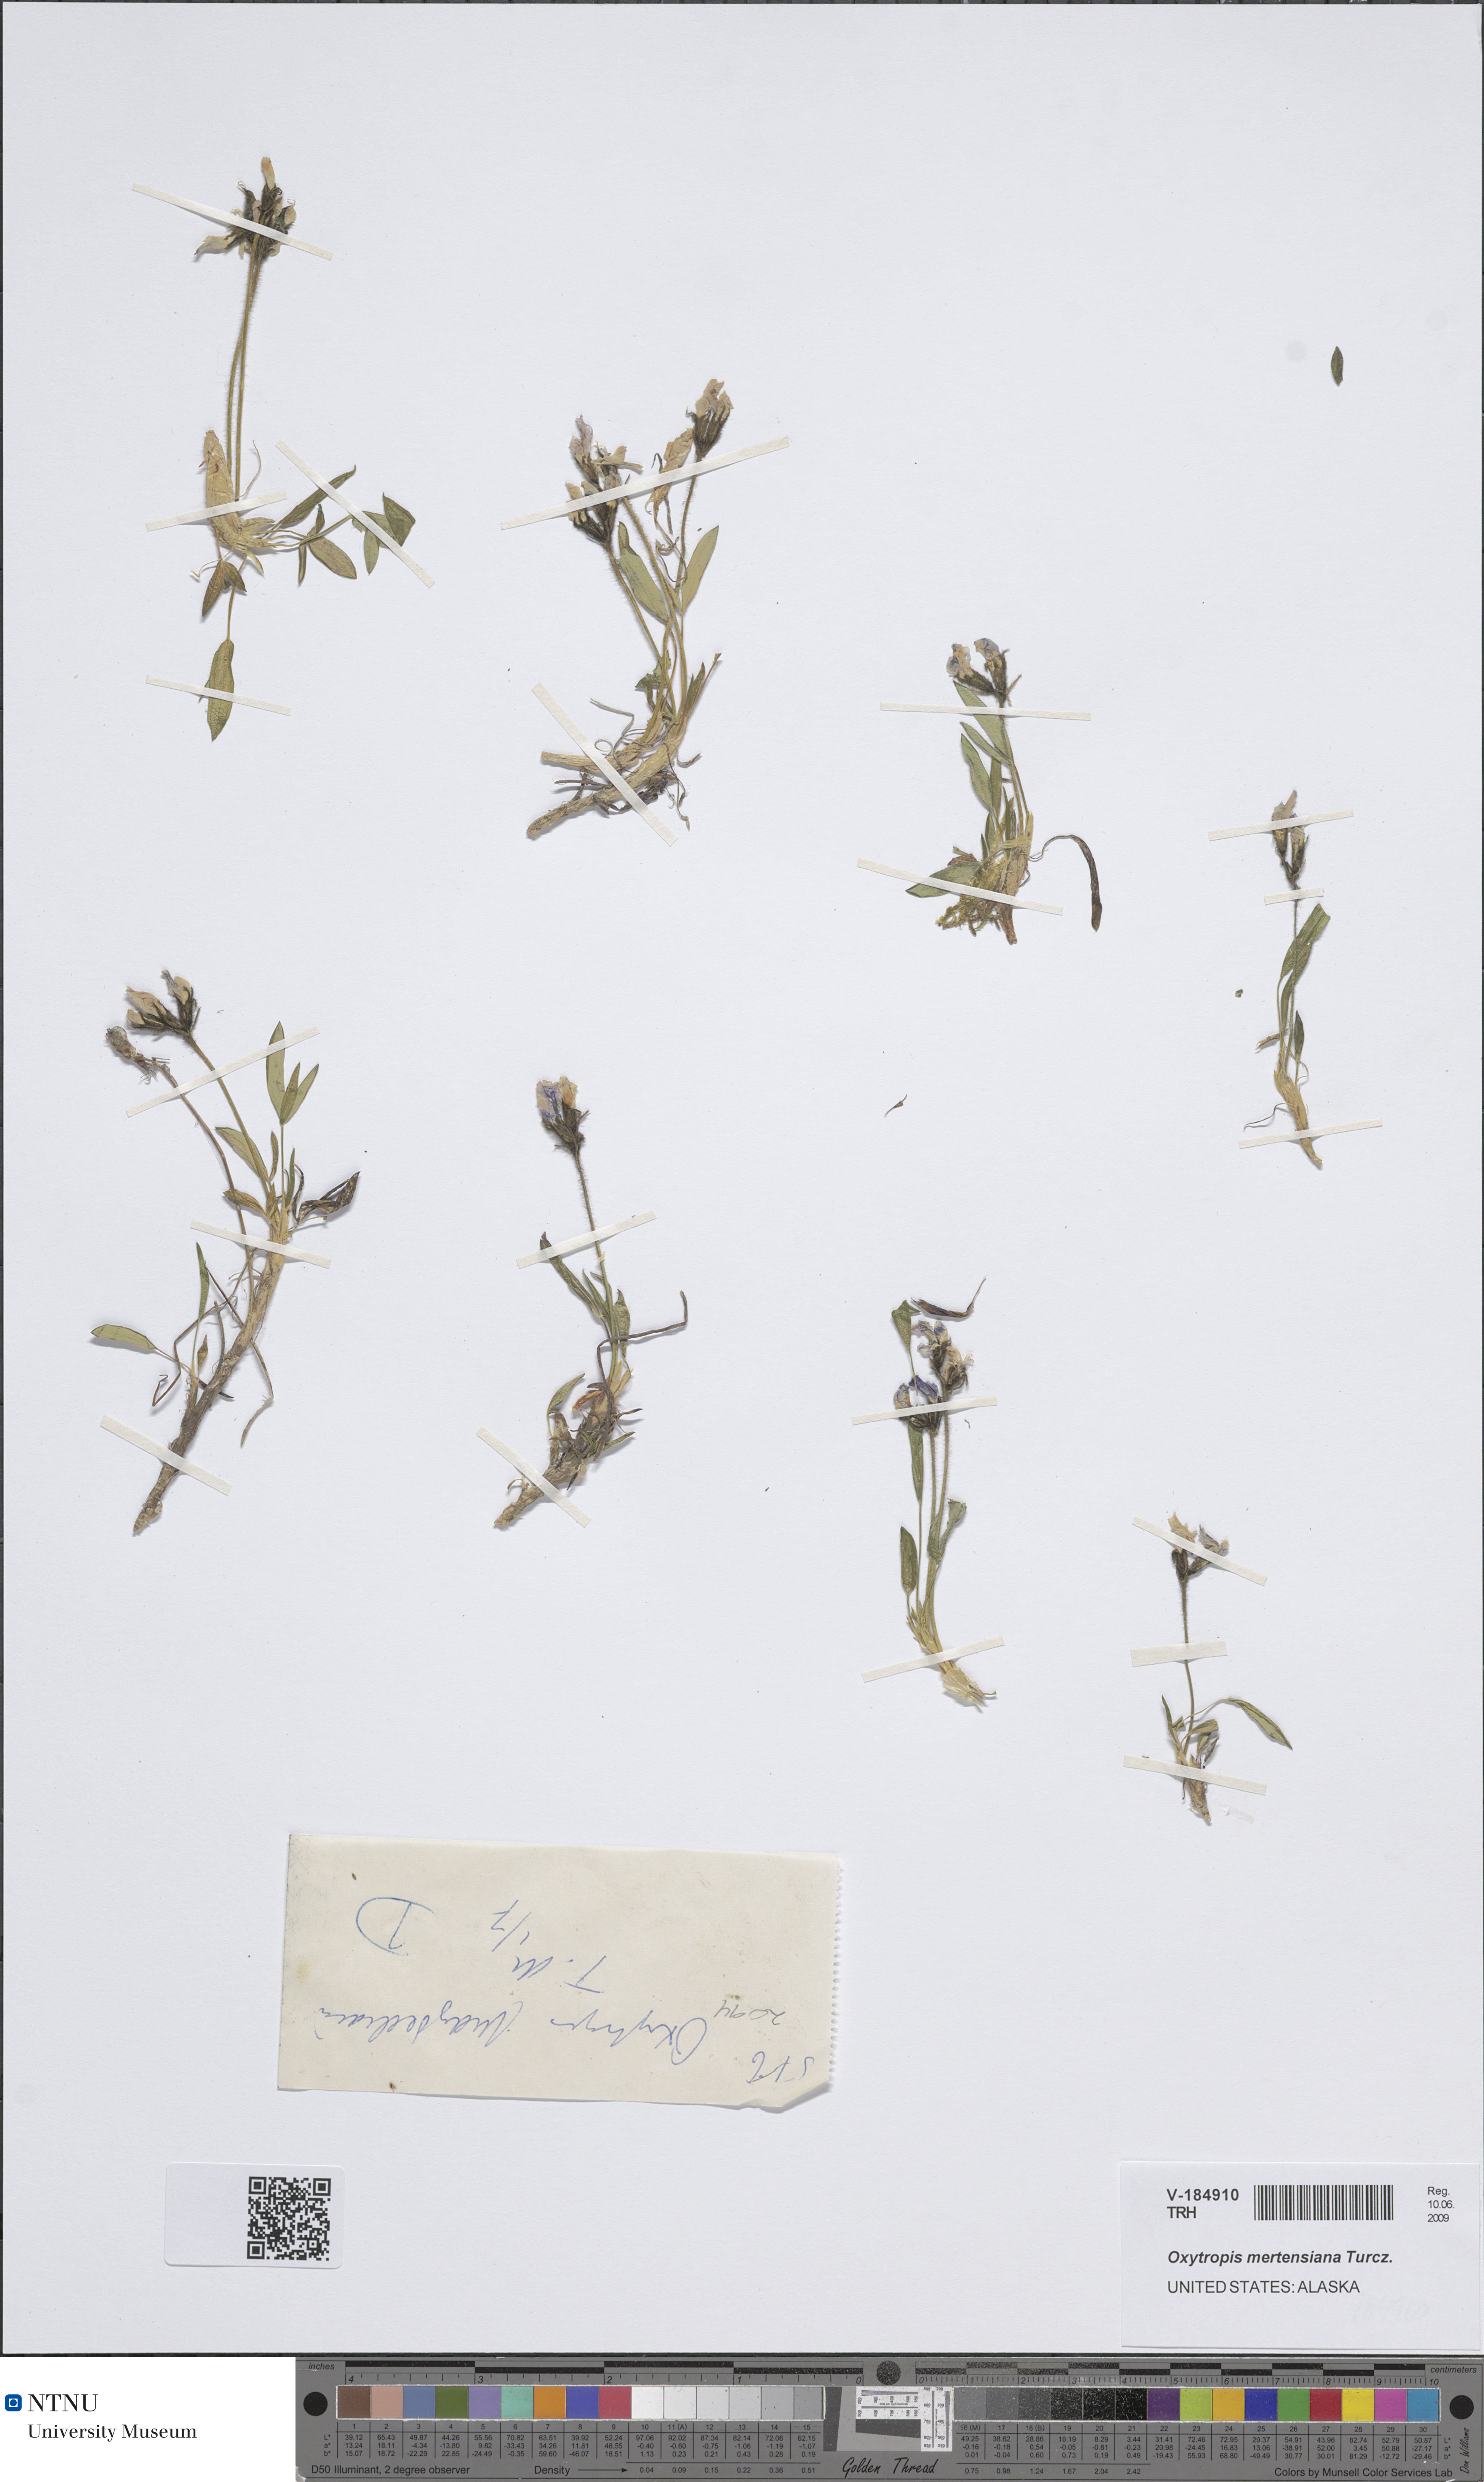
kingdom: Plantae
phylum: Tracheophyta
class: Magnoliopsida
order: Fabales
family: Fabaceae
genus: Oxytropis
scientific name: Oxytropis mertensiana
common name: Mertens' locoweed
